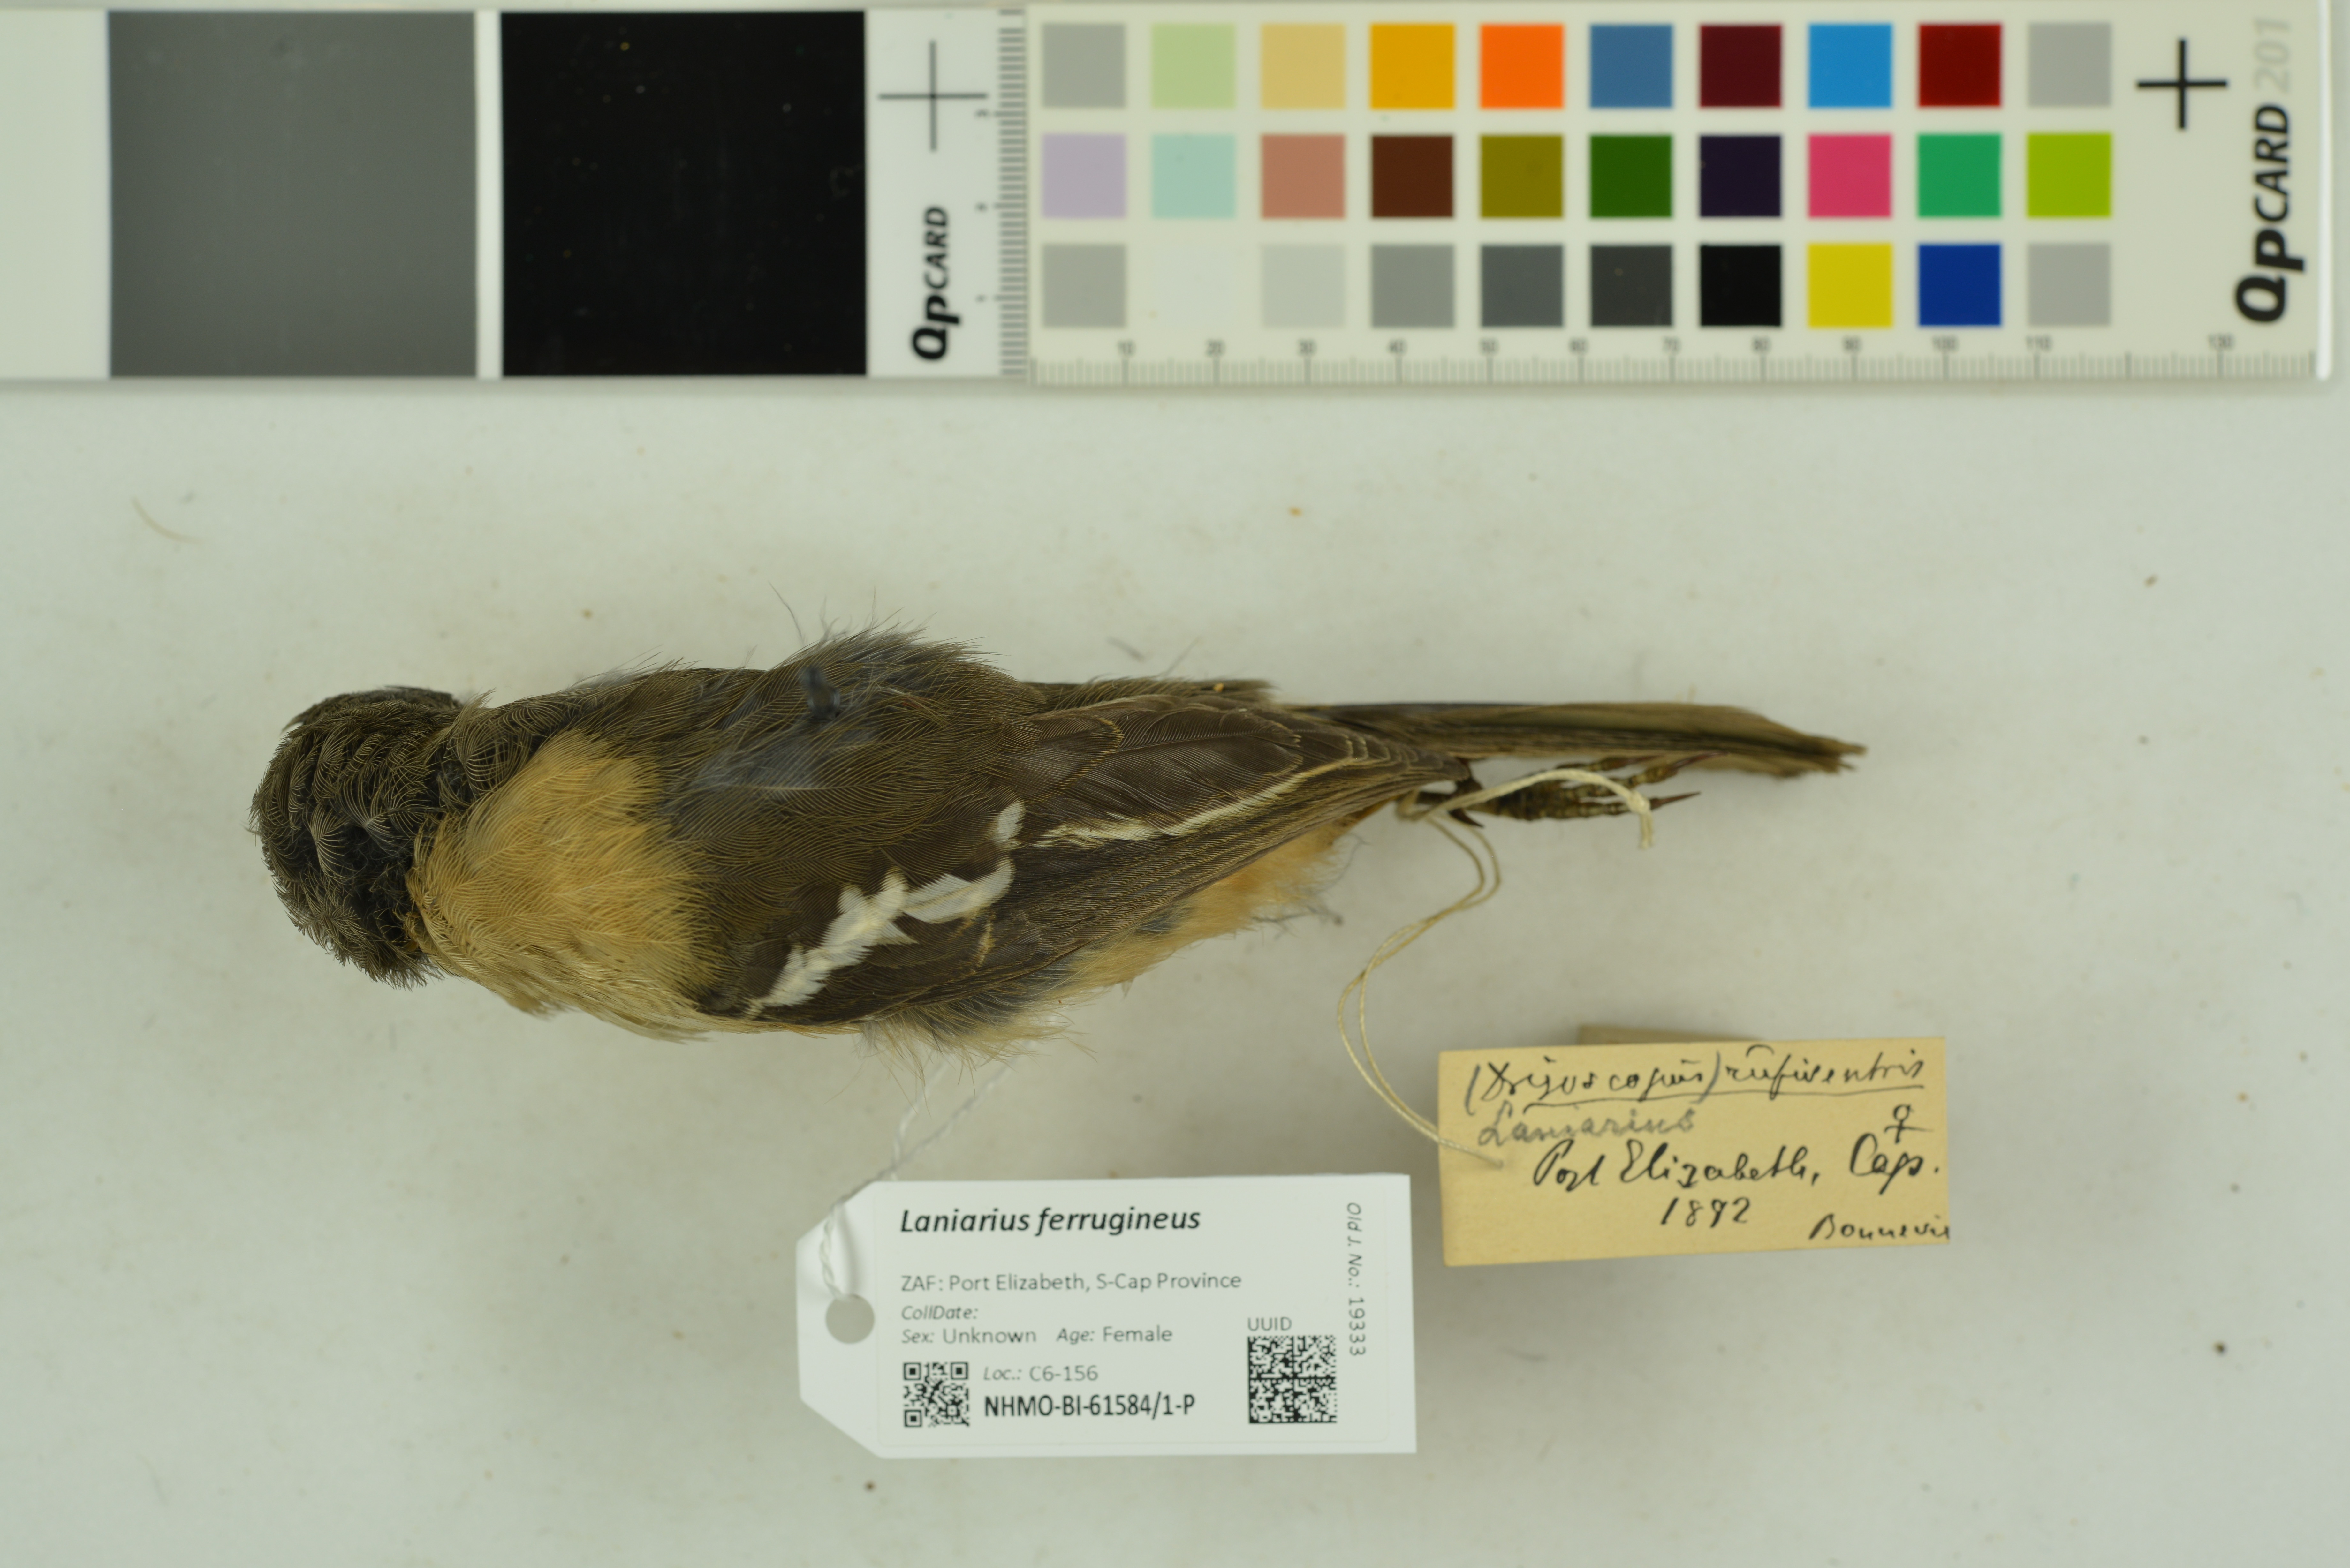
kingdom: Animalia
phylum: Chordata
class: Aves
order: Passeriformes
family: Malaconotidae
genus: Laniarius
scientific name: Laniarius ferrugineus
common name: Southern boubou
